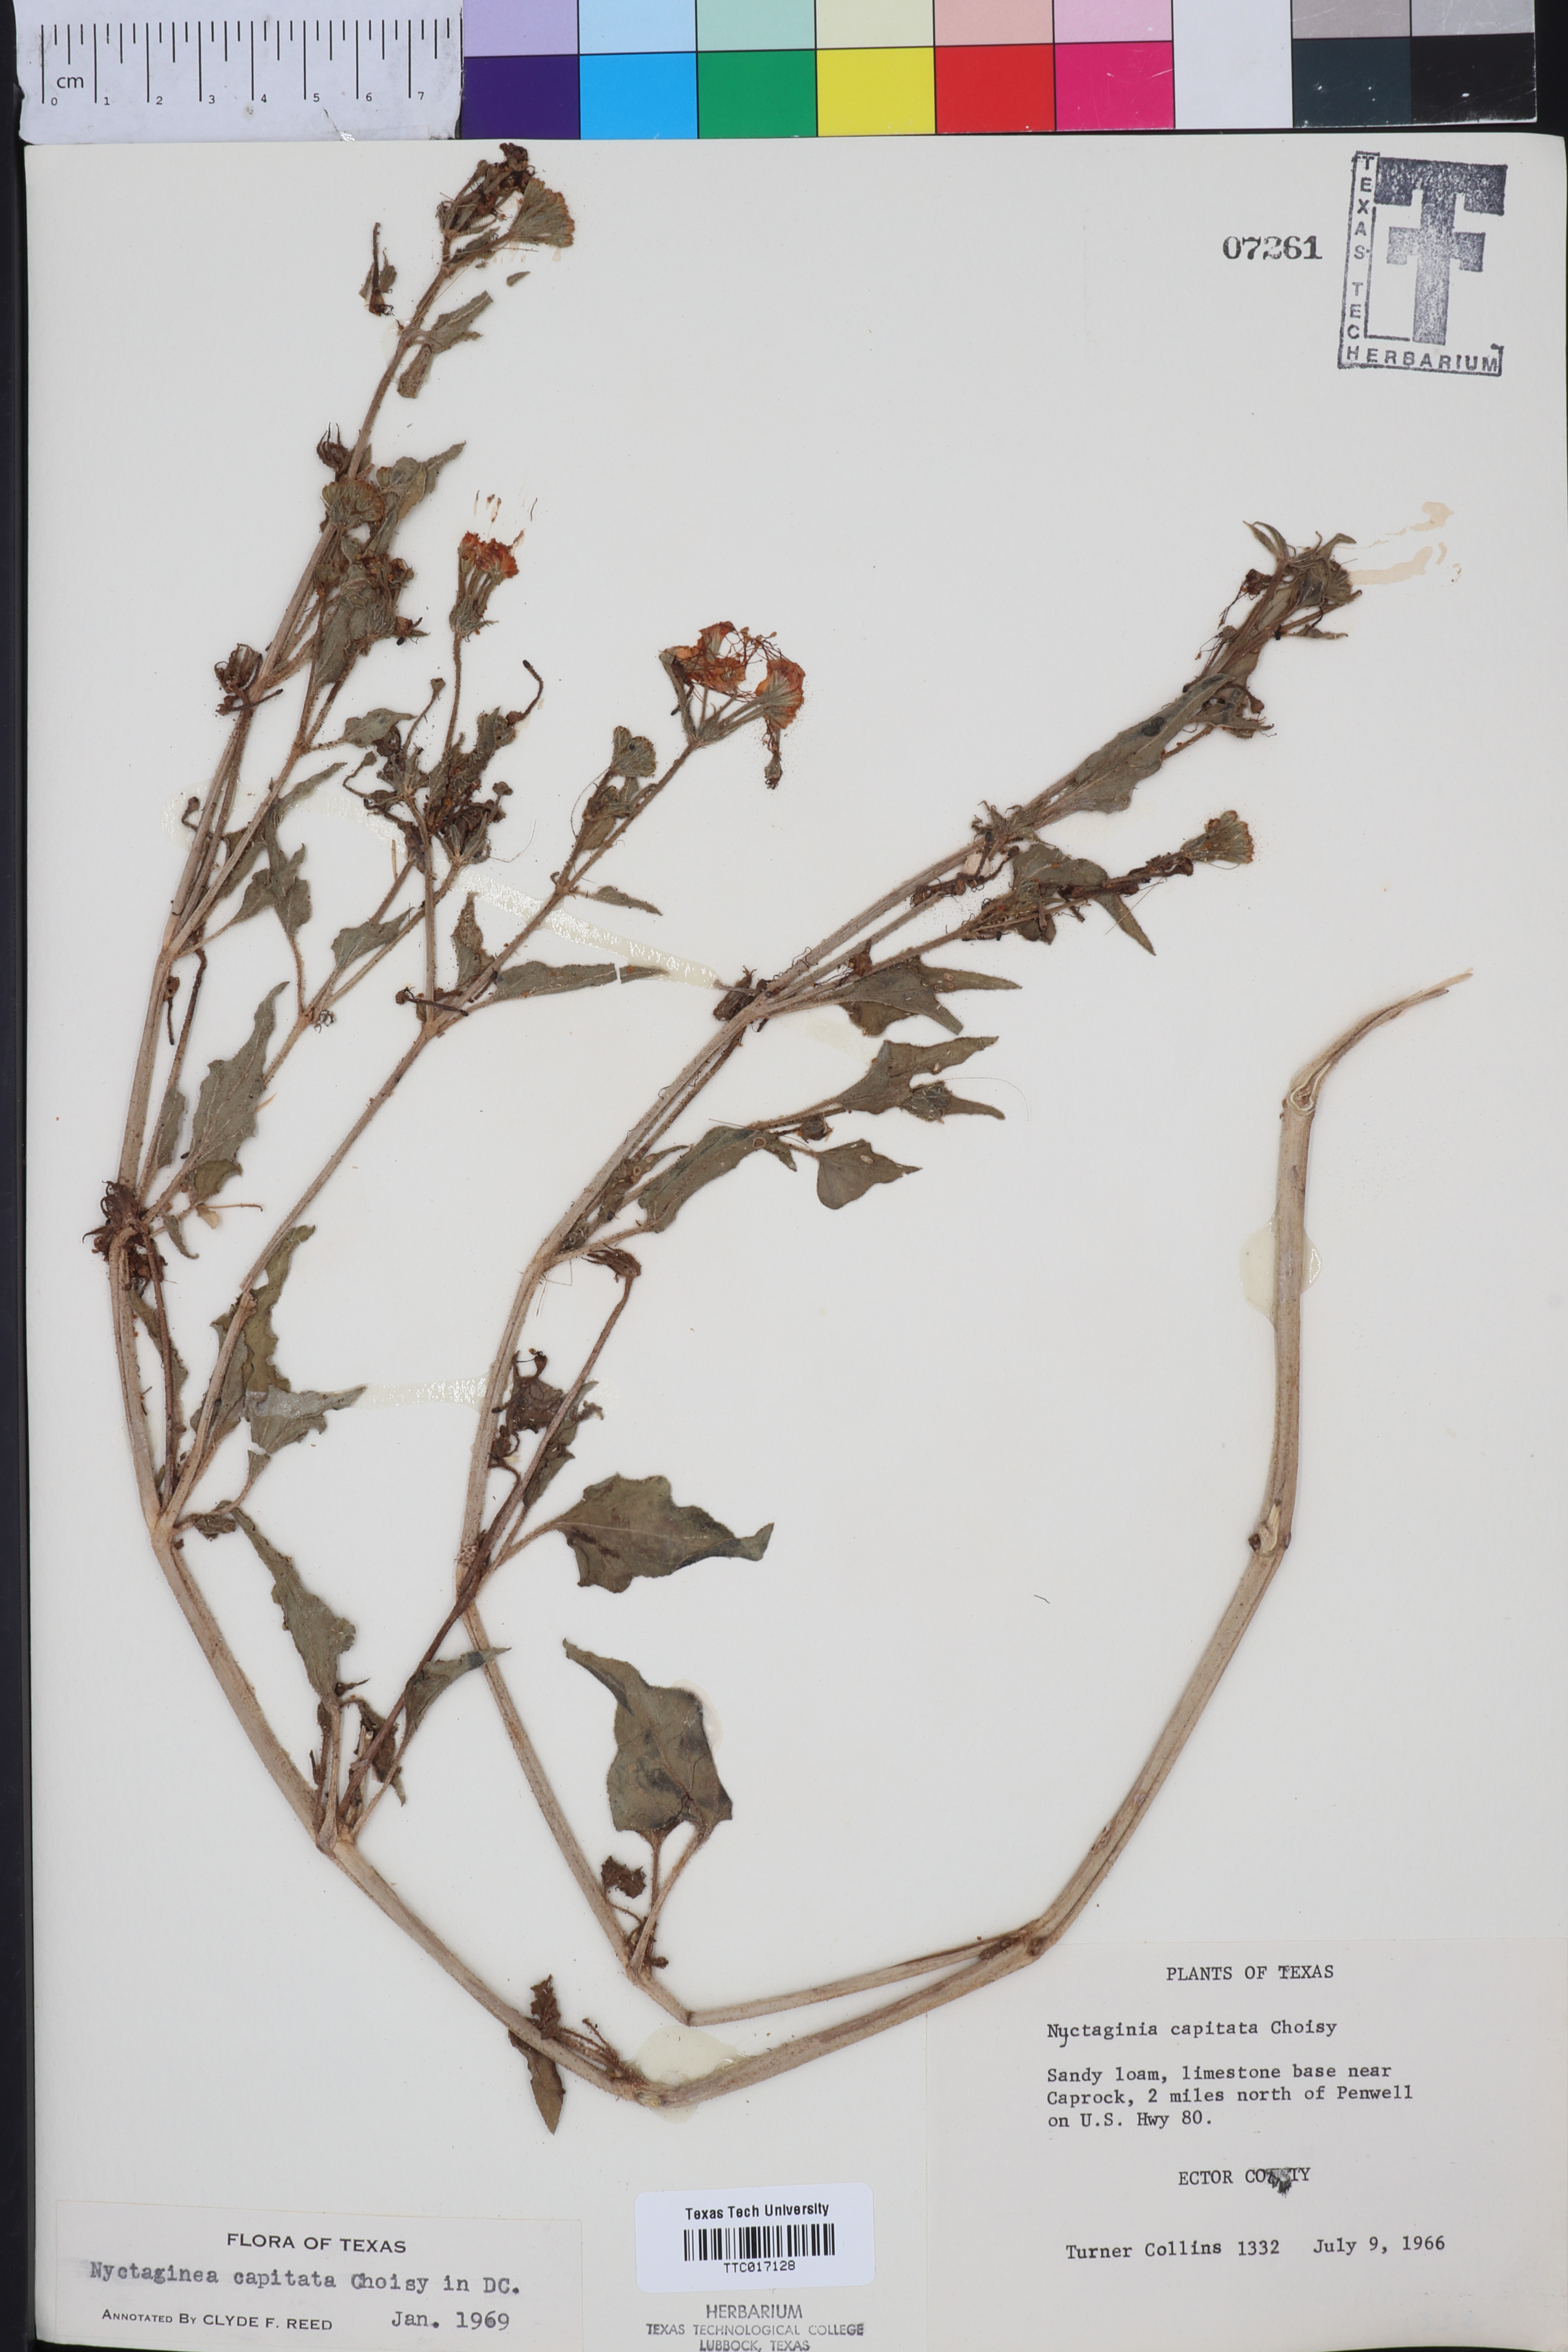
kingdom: Plantae
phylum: Tracheophyta
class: Magnoliopsida
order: Caryophyllales
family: Nyctaginaceae
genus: Nyctaginia
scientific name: Nyctaginia capitata
